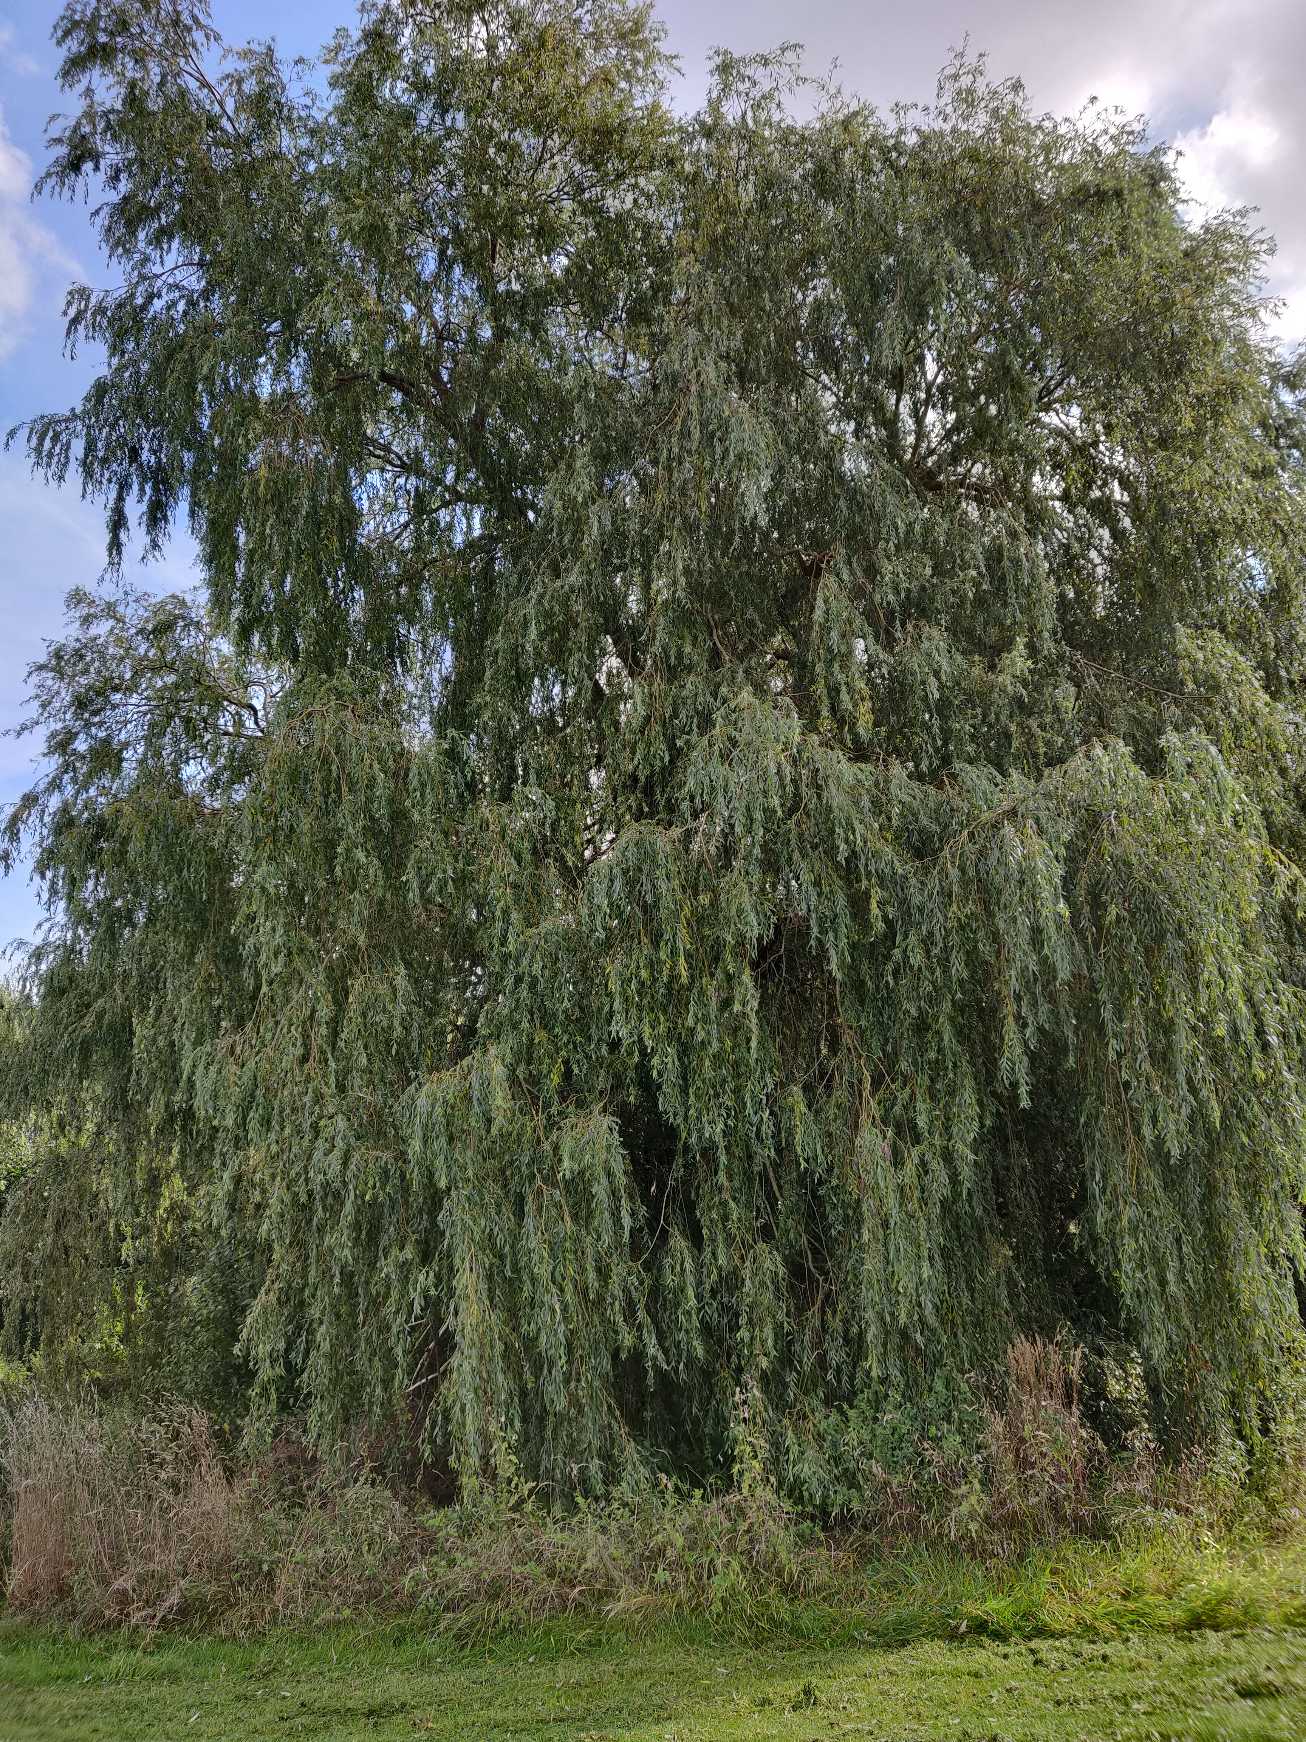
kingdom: Plantae
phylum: Tracheophyta
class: Magnoliopsida
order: Malpighiales
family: Salicaceae
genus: Salix
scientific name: Salix sepulcralis
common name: Hænge-pil
